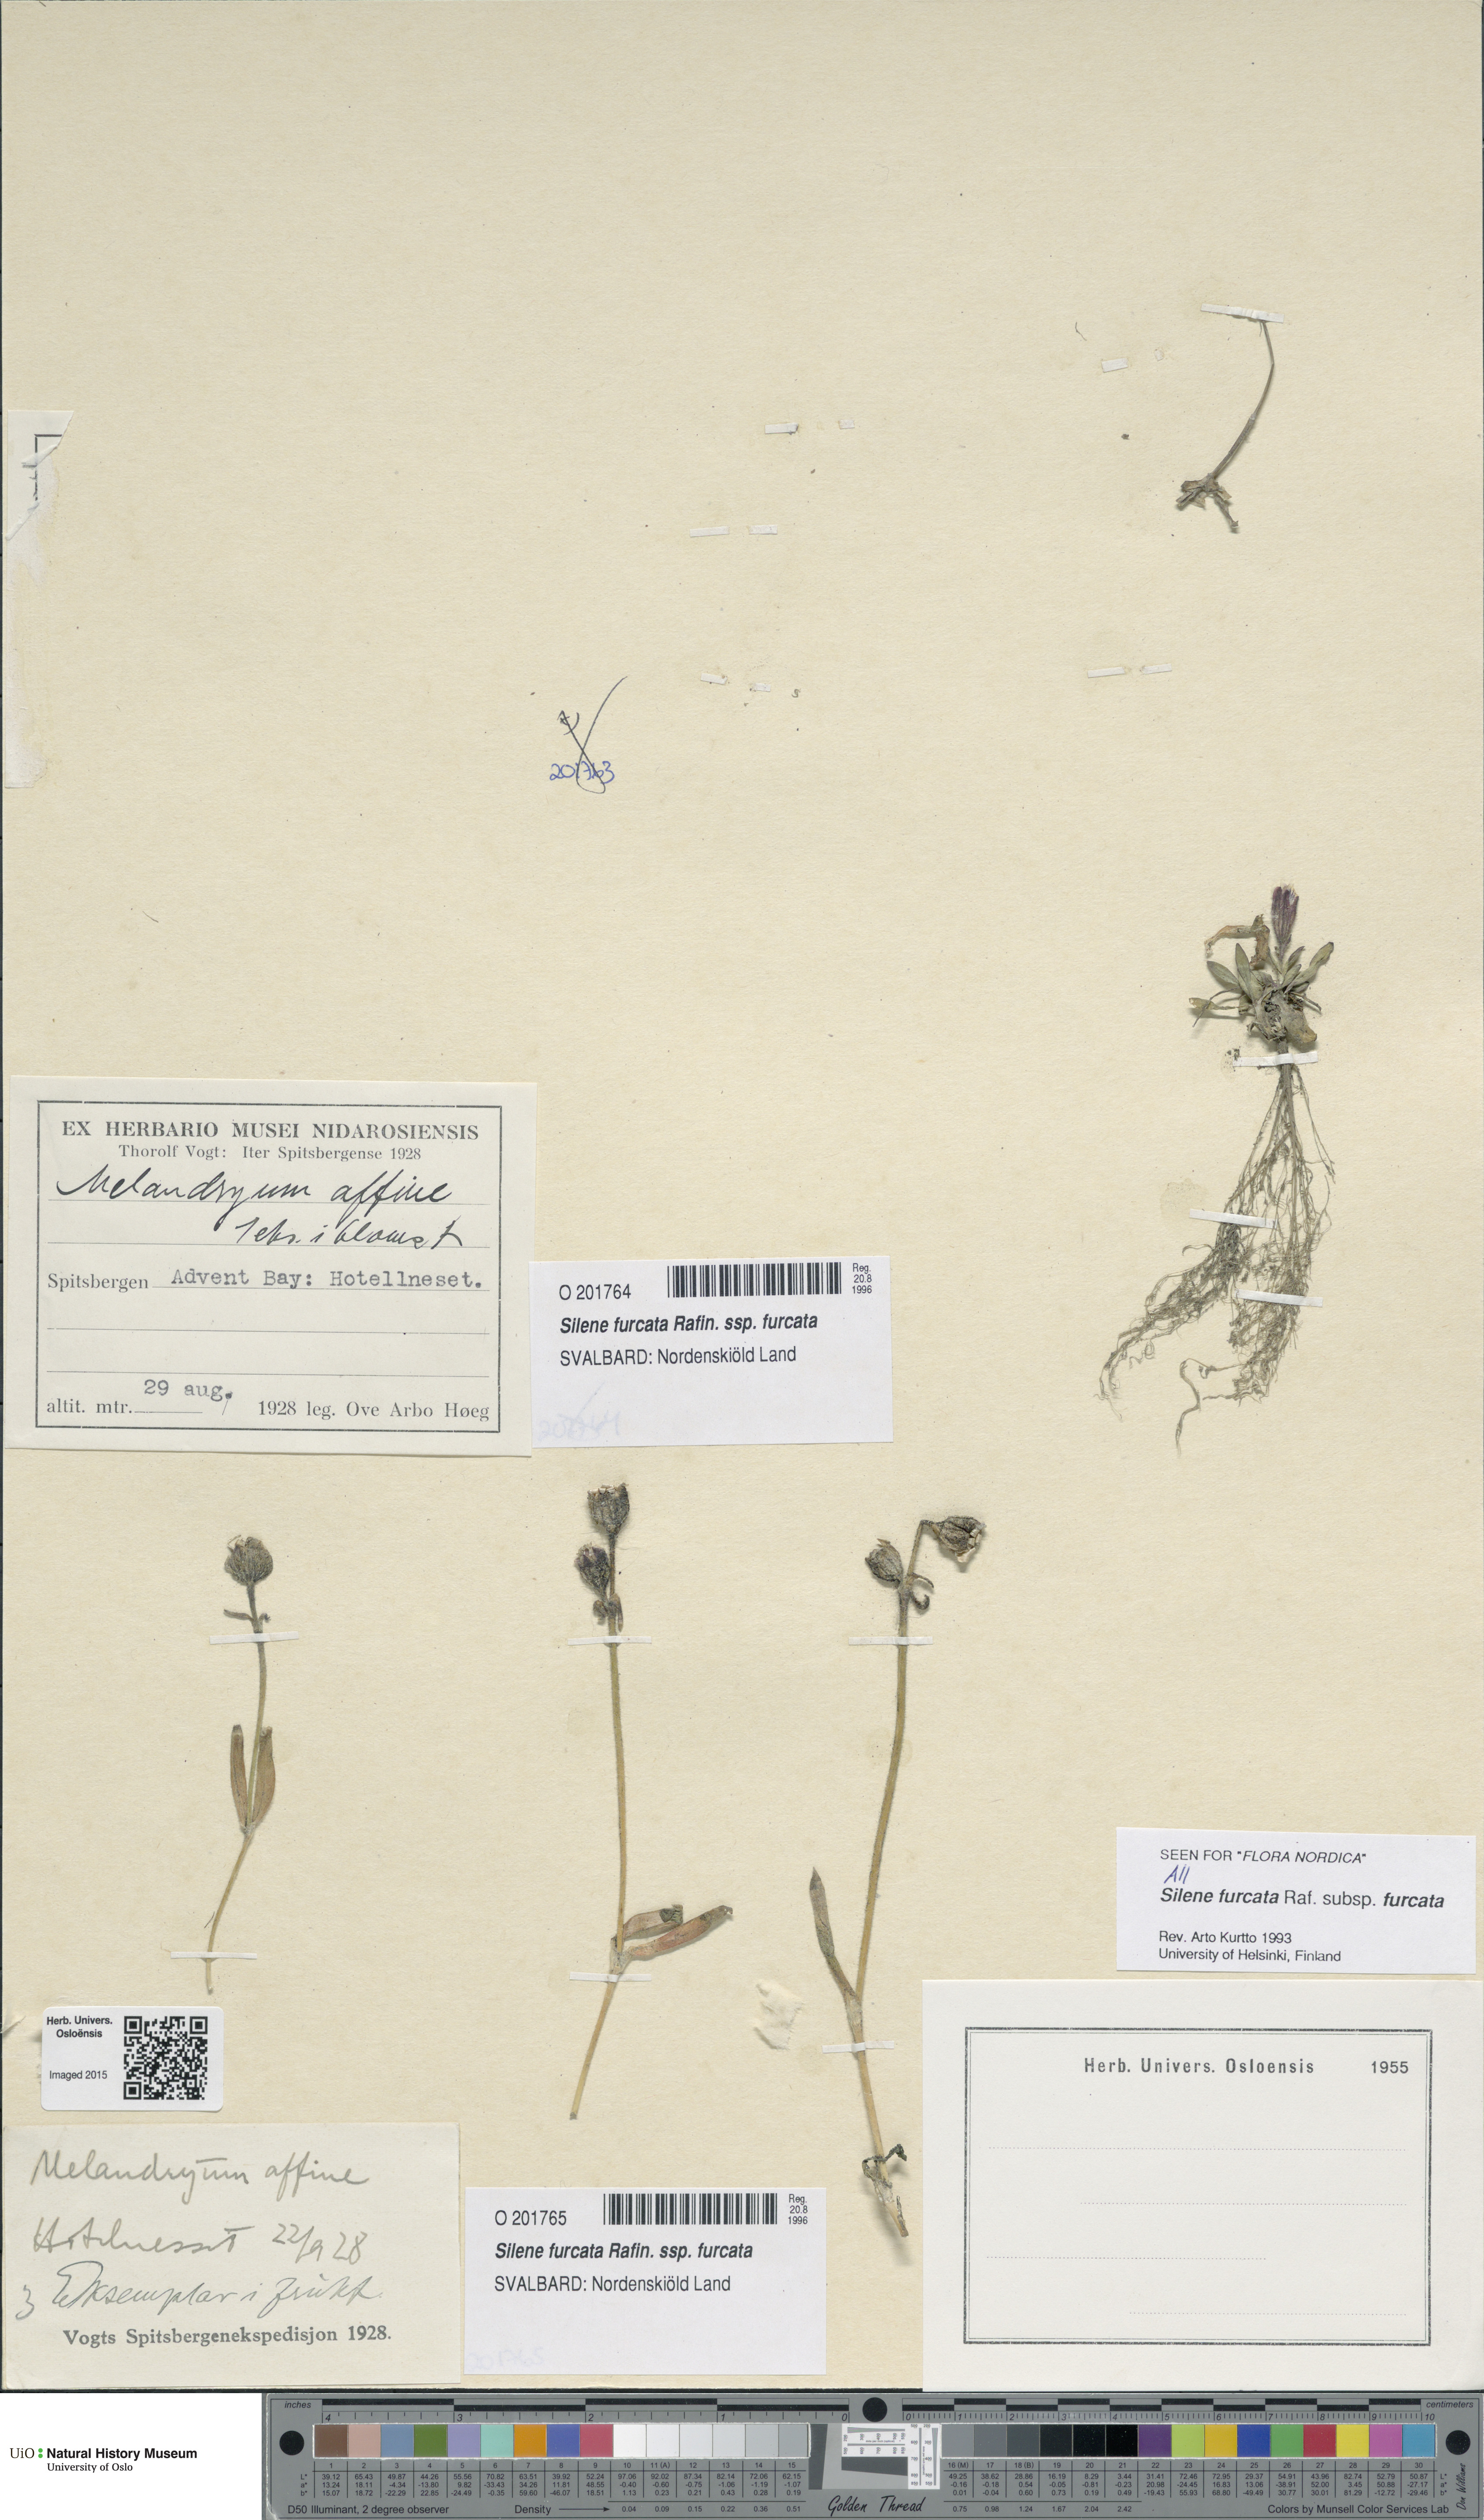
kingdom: Plantae
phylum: Tracheophyta
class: Magnoliopsida
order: Caryophyllales
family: Caryophyllaceae
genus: Silene
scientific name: Silene involucrata
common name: Greater arctic campion
